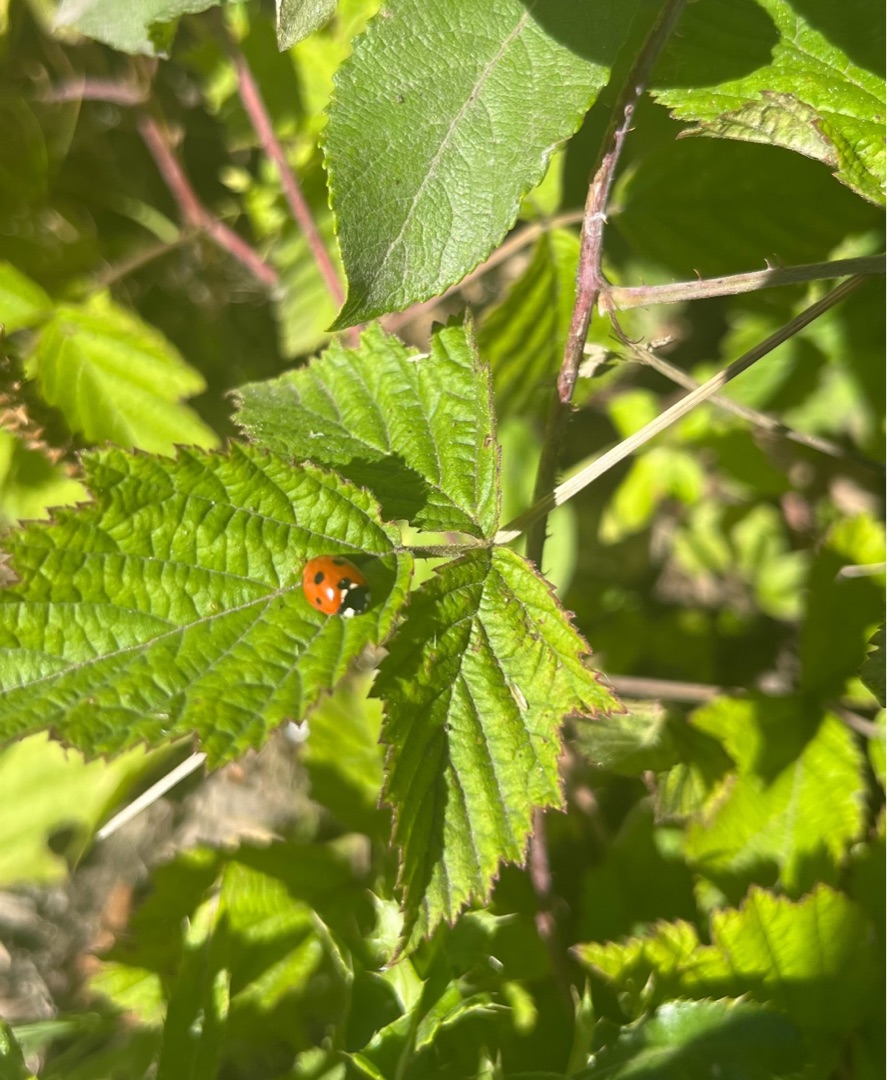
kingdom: Animalia
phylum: Arthropoda
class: Insecta
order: Coleoptera
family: Coccinellidae
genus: Coccinella
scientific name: Coccinella septempunctata
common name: Syvplettet mariehøne
